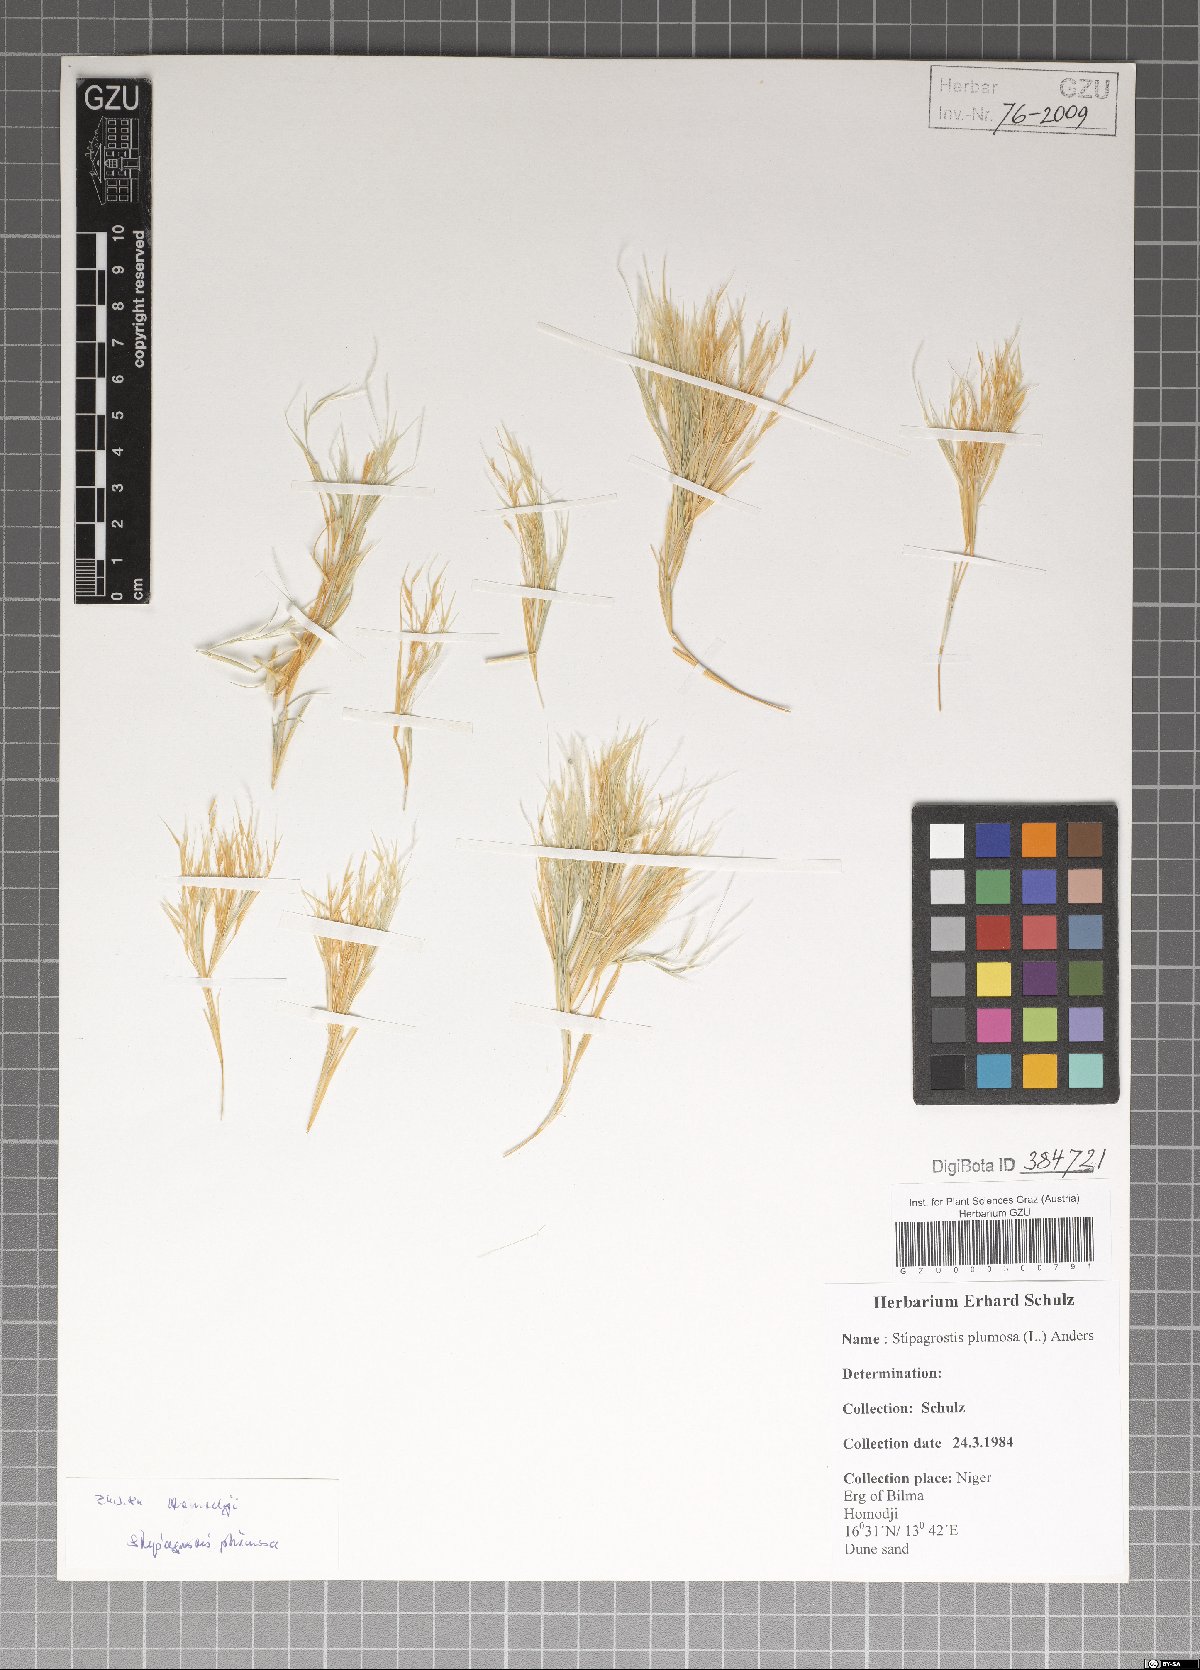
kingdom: Plantae
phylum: Tracheophyta
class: Liliopsida
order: Poales
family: Poaceae
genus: Stipagrostis
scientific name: Stipagrostis plumosa
